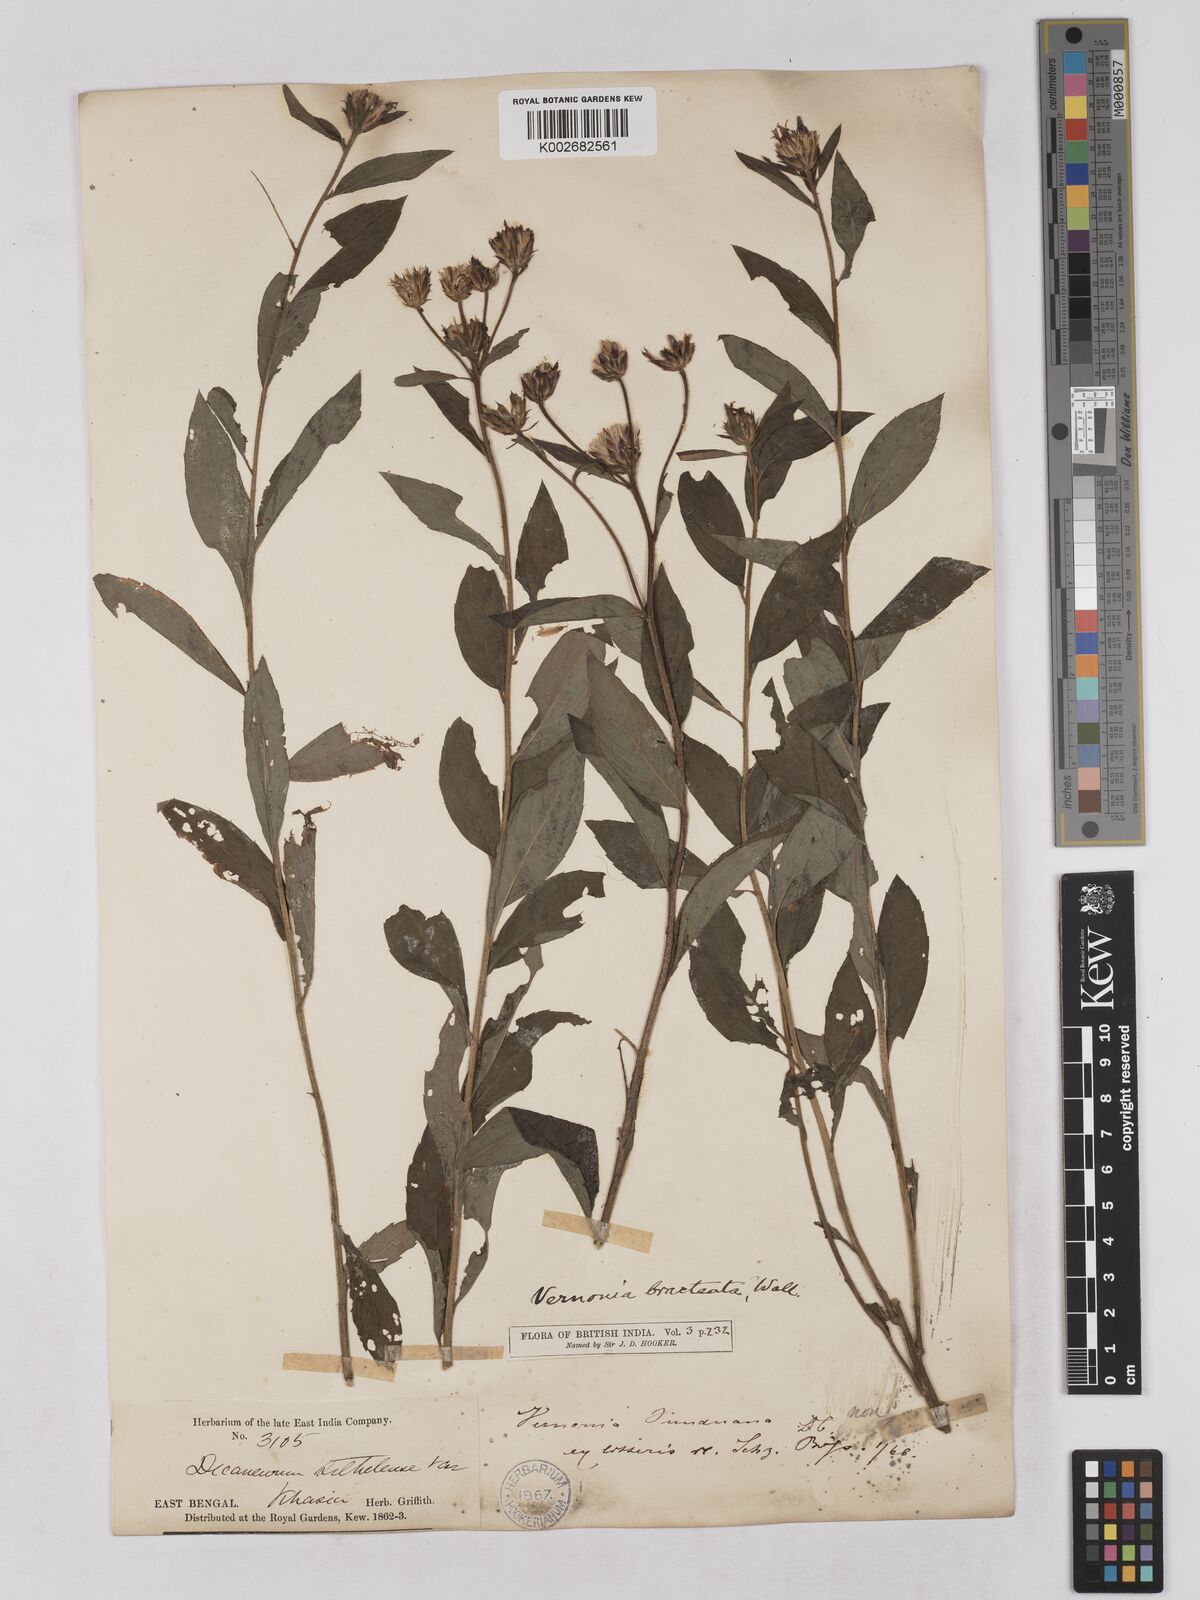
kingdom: Plantae
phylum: Tracheophyta
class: Magnoliopsida
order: Asterales
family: Asteraceae
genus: Acilepis
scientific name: Acilepis silhetensis
